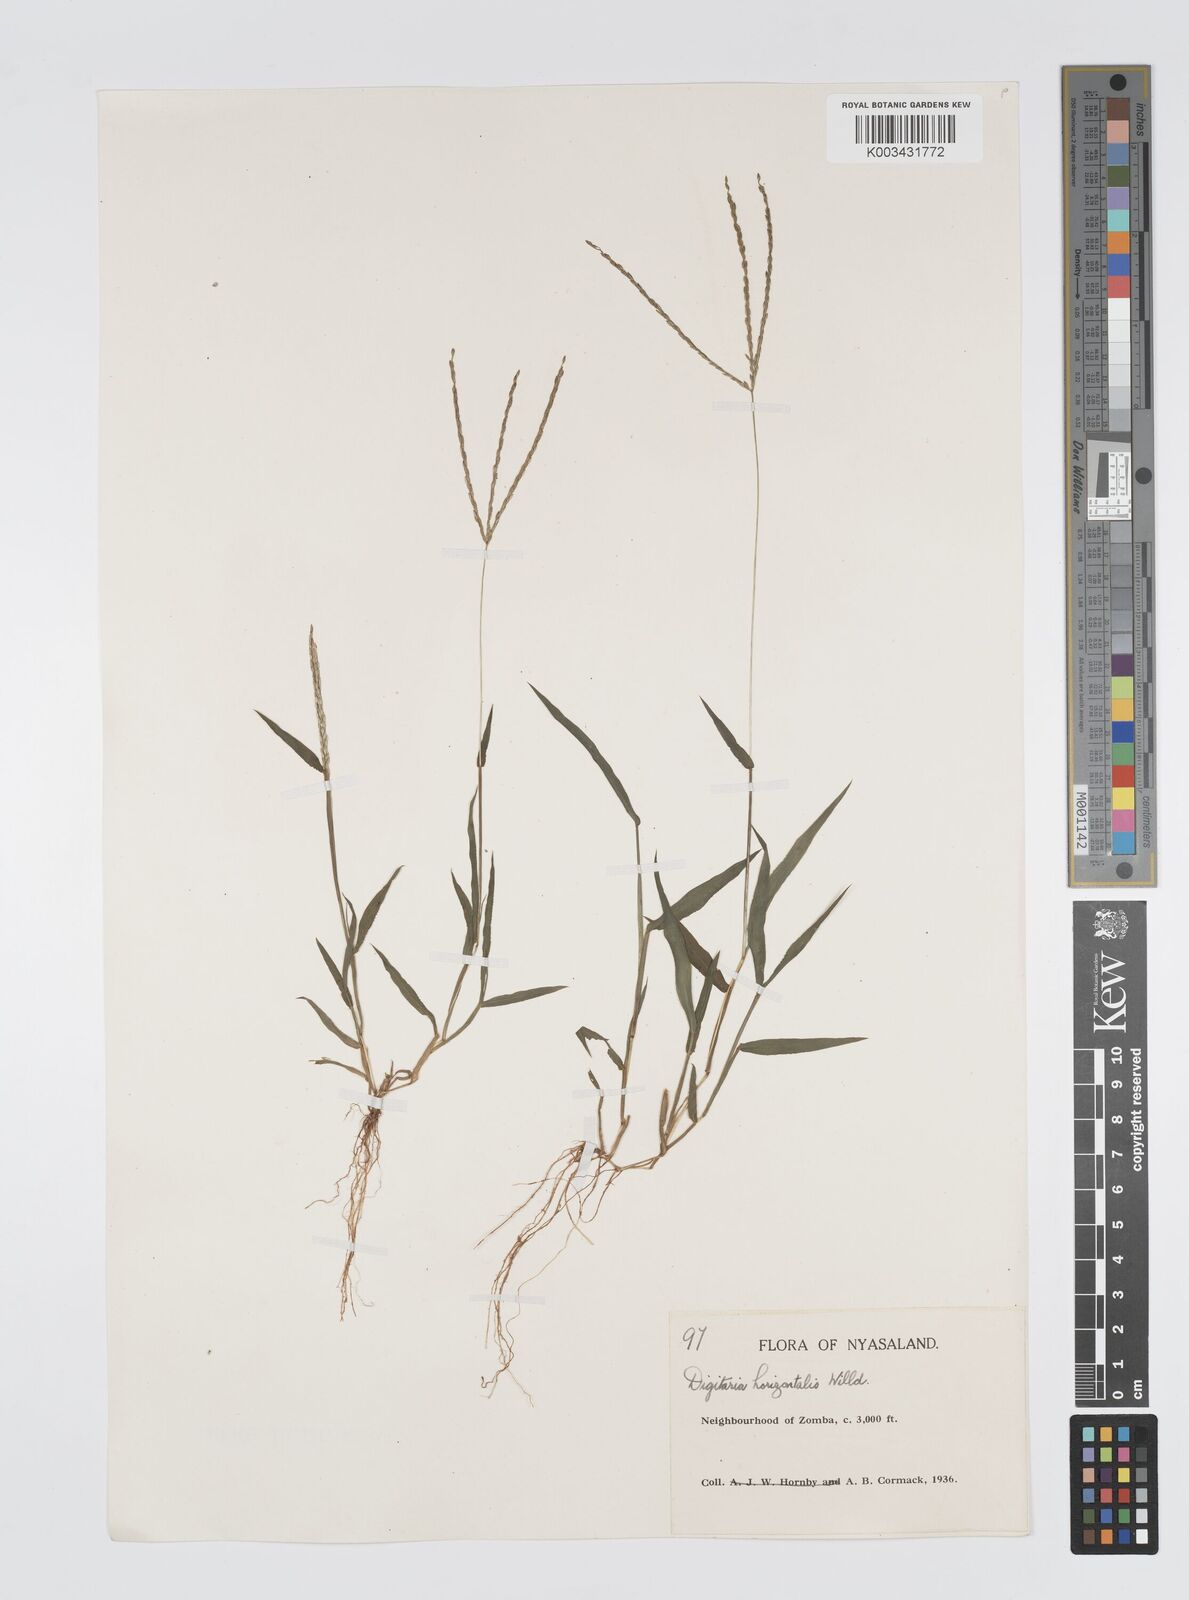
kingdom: Plantae
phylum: Tracheophyta
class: Liliopsida
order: Poales
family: Poaceae
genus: Digitaria
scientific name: Digitaria nuda
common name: Naked crabgrass
